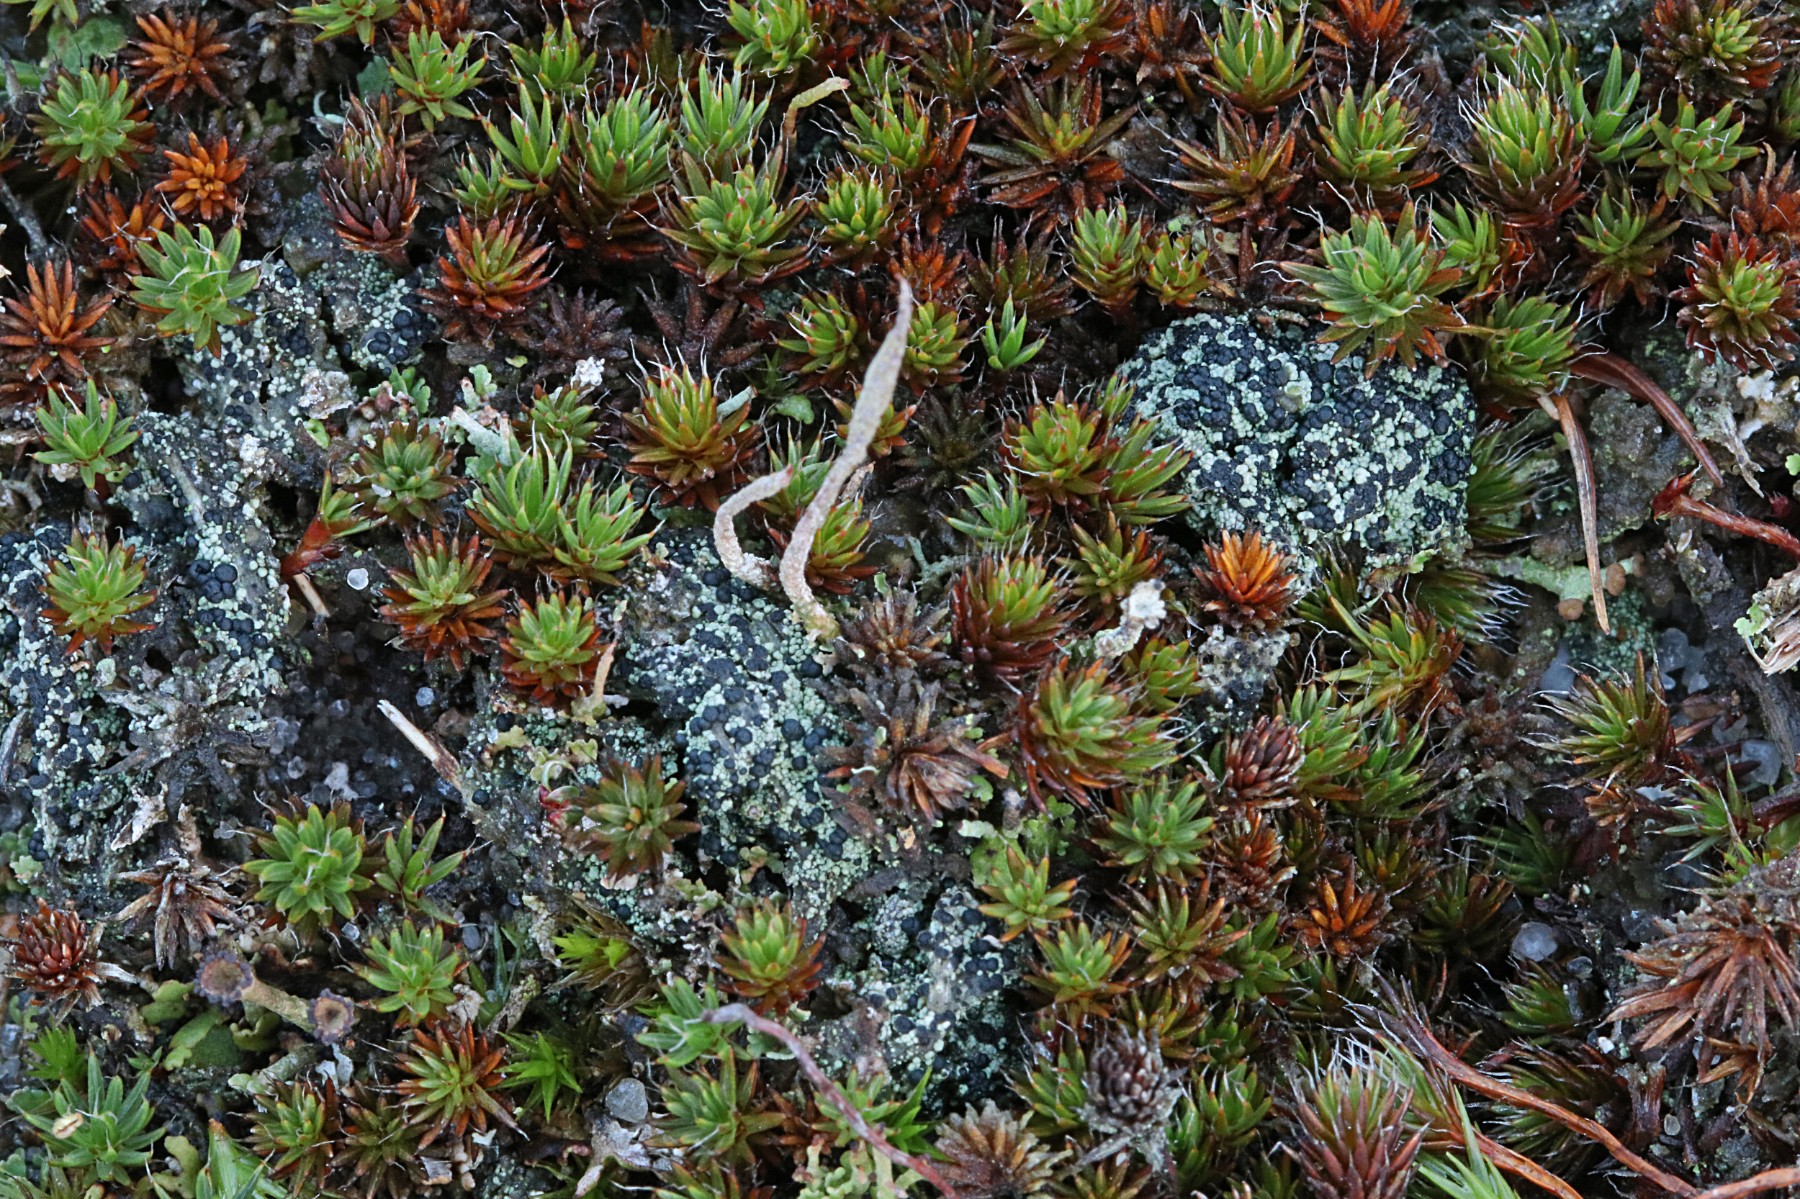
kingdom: Fungi
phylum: Ascomycota
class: Lecanoromycetes
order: Lecanorales
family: Byssolomataceae
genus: Micarea
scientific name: Micarea lignaria
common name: tørve-knaplav
